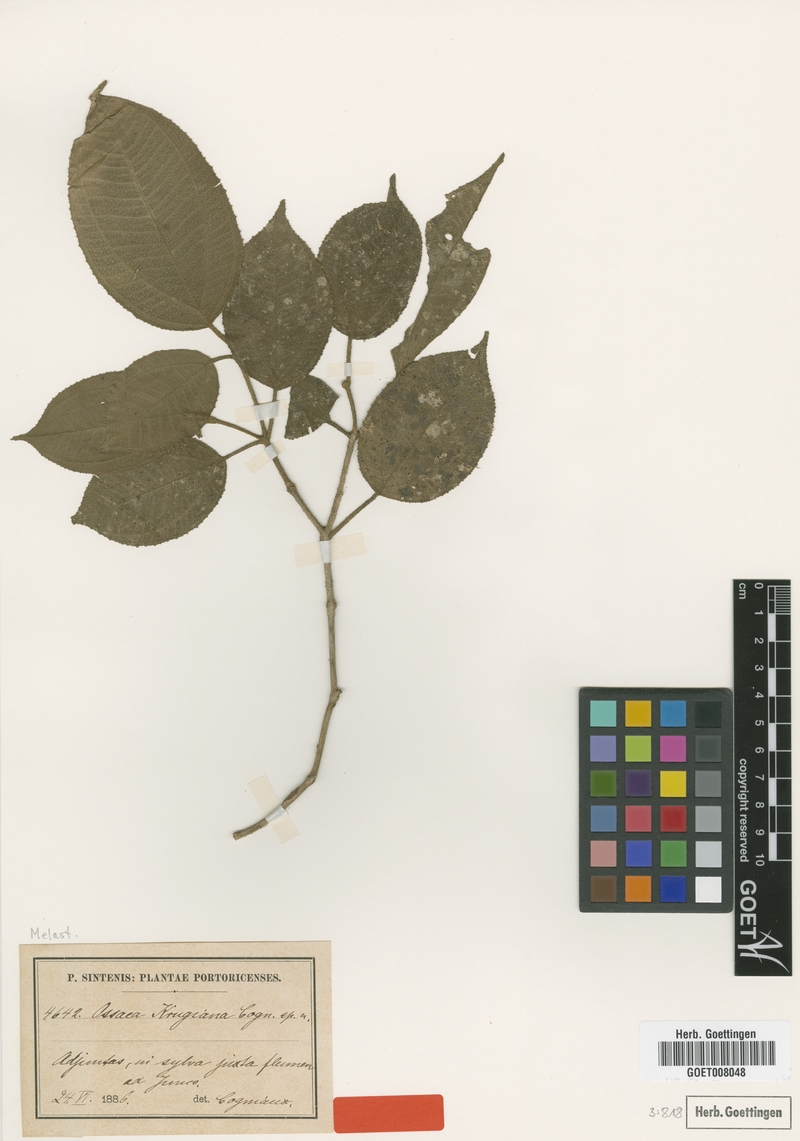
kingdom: Plantae
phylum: Tracheophyta
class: Magnoliopsida
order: Myrtales
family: Melastomataceae
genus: Miconia
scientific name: Miconia krugiana
